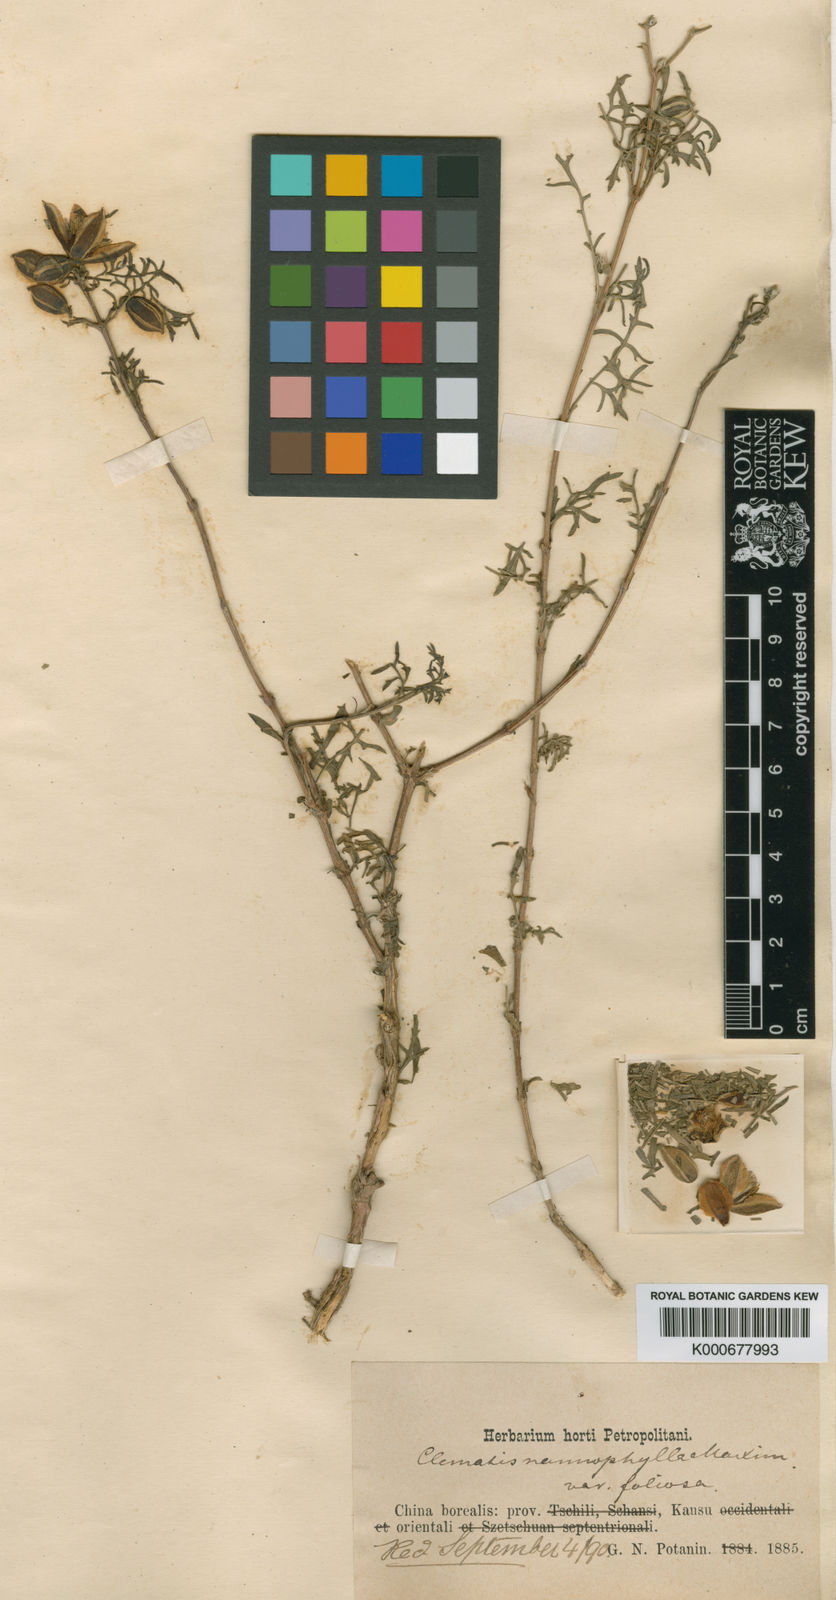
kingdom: Plantae
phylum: Tracheophyta
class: Magnoliopsida
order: Ranunculales
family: Ranunculaceae
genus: Clematis
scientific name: Clematis nannophylla
